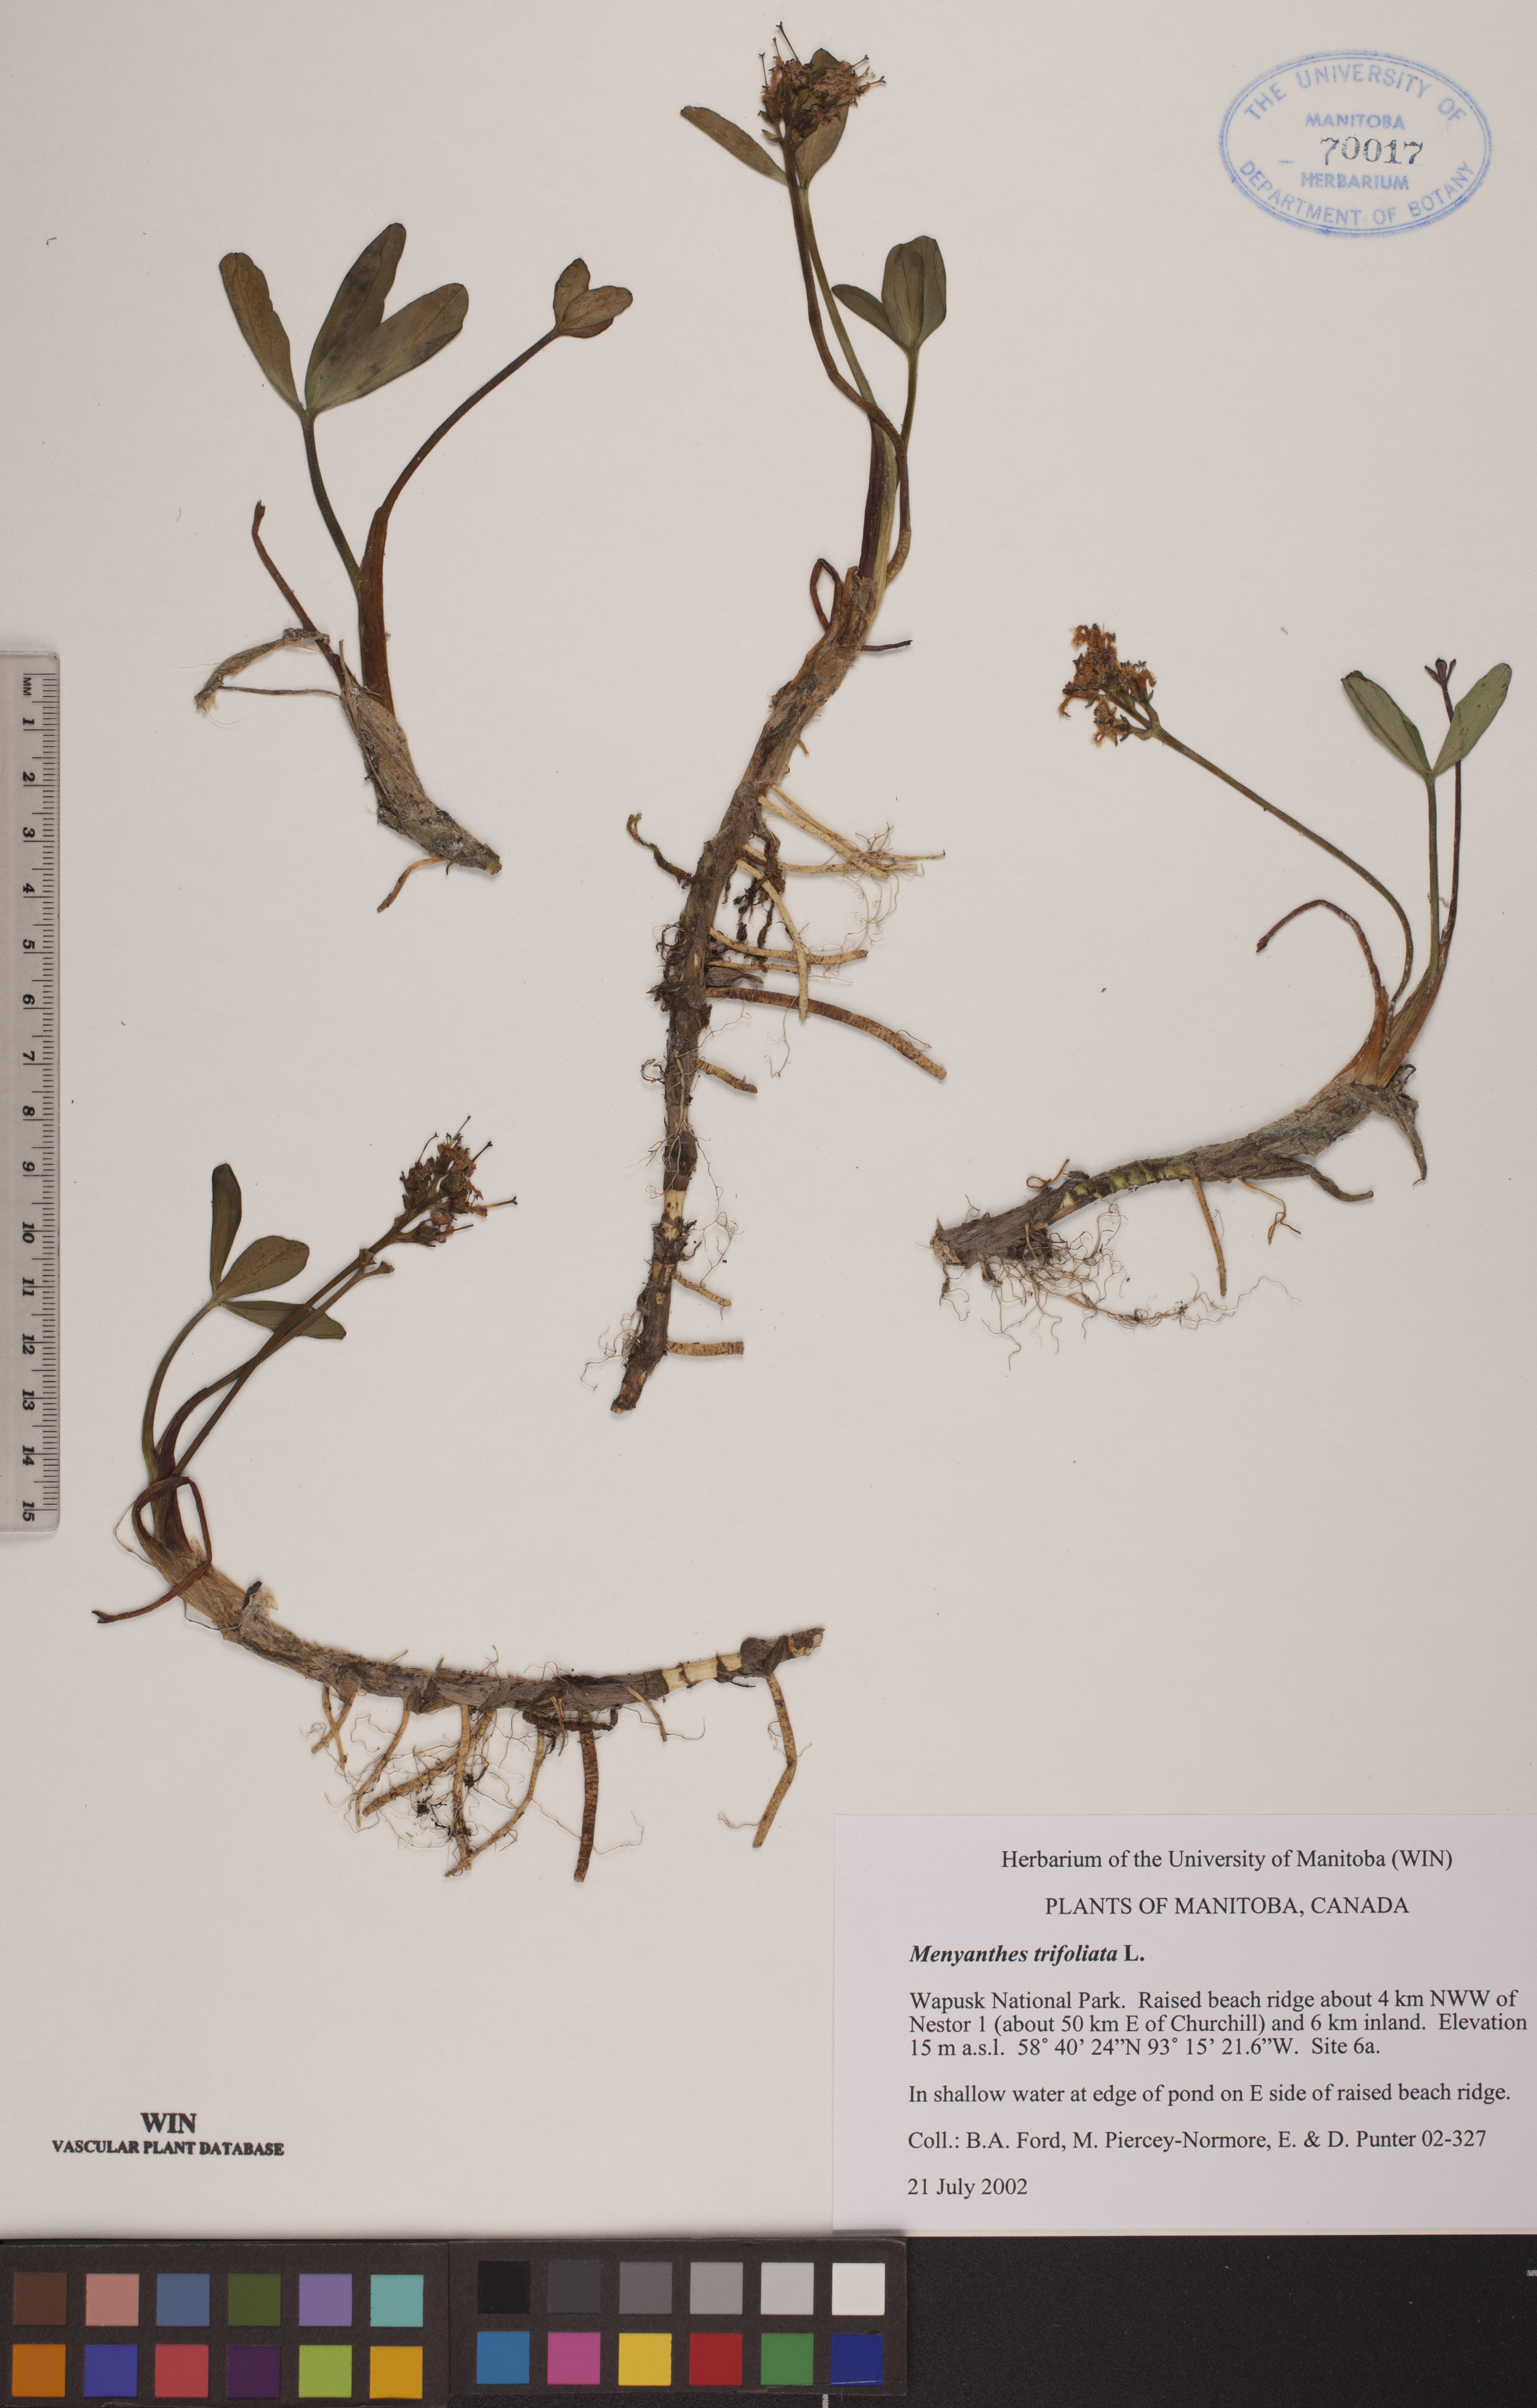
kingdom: Plantae
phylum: Tracheophyta
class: Magnoliopsida
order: Asterales
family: Menyanthaceae
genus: Menyanthes
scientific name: Menyanthes trifoliata
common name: Bogbean
